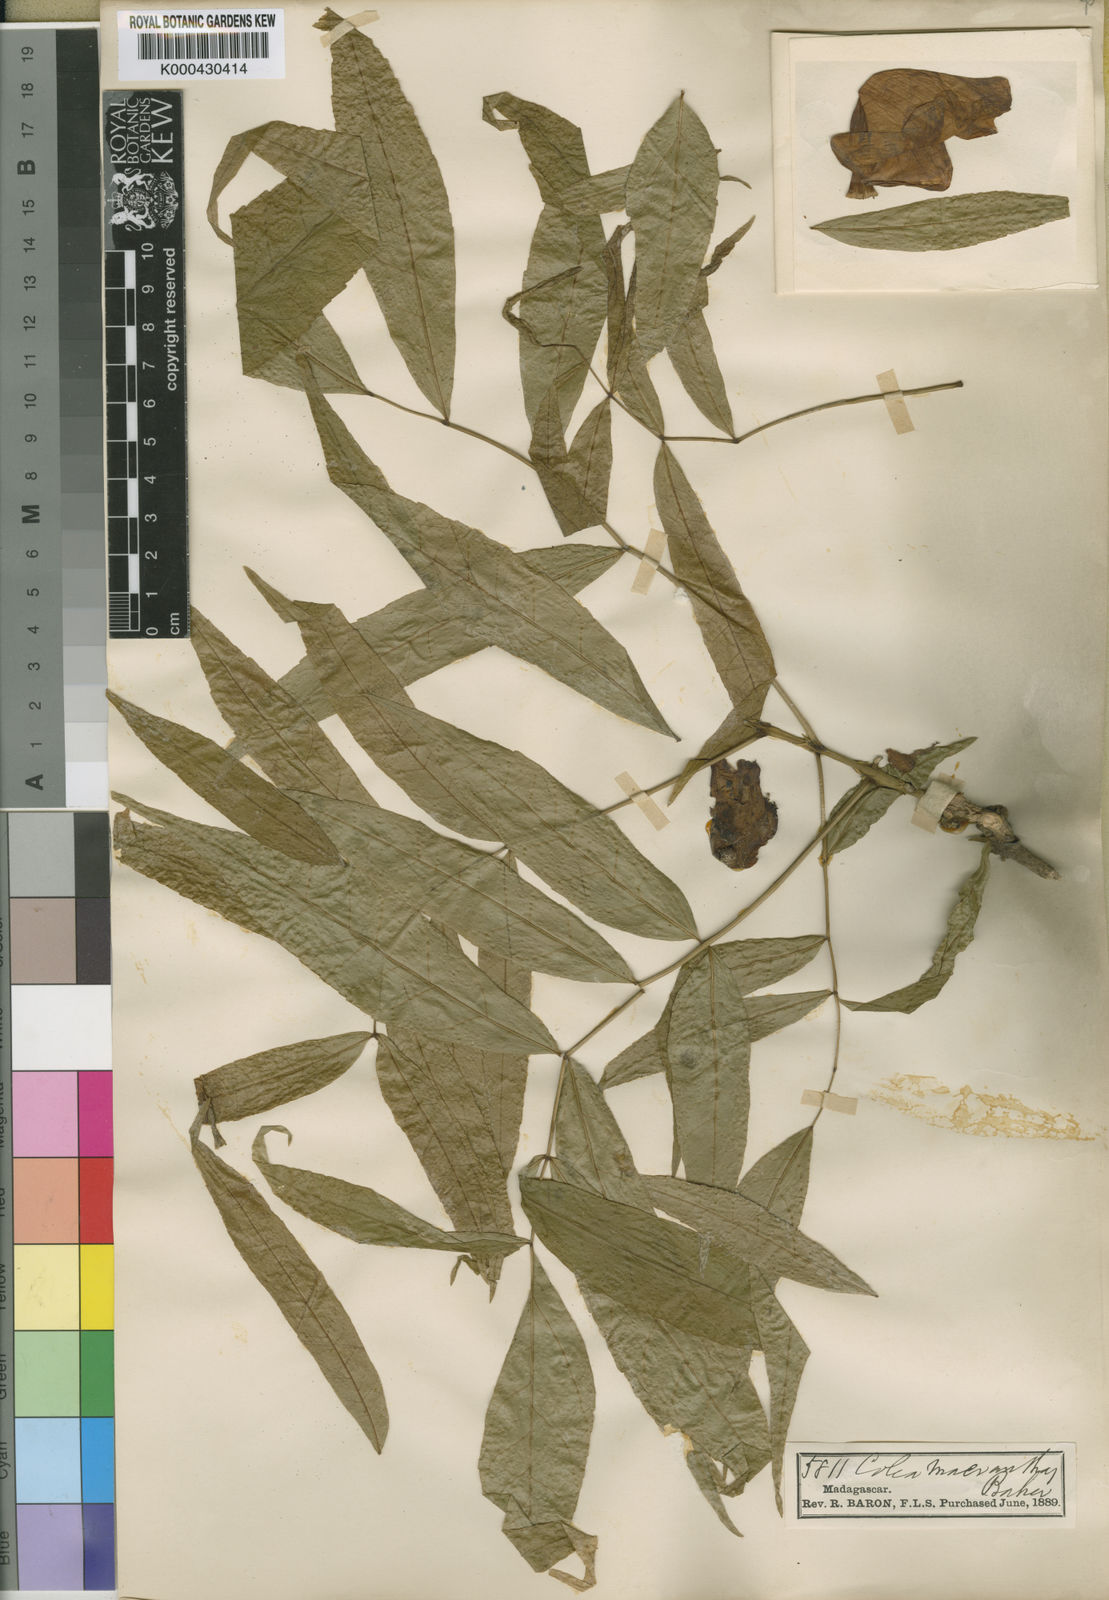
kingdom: Plantae
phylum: Tracheophyta
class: Magnoliopsida
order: Lamiales
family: Bignoniaceae
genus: Fernandoa
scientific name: Fernandoa macrantha
